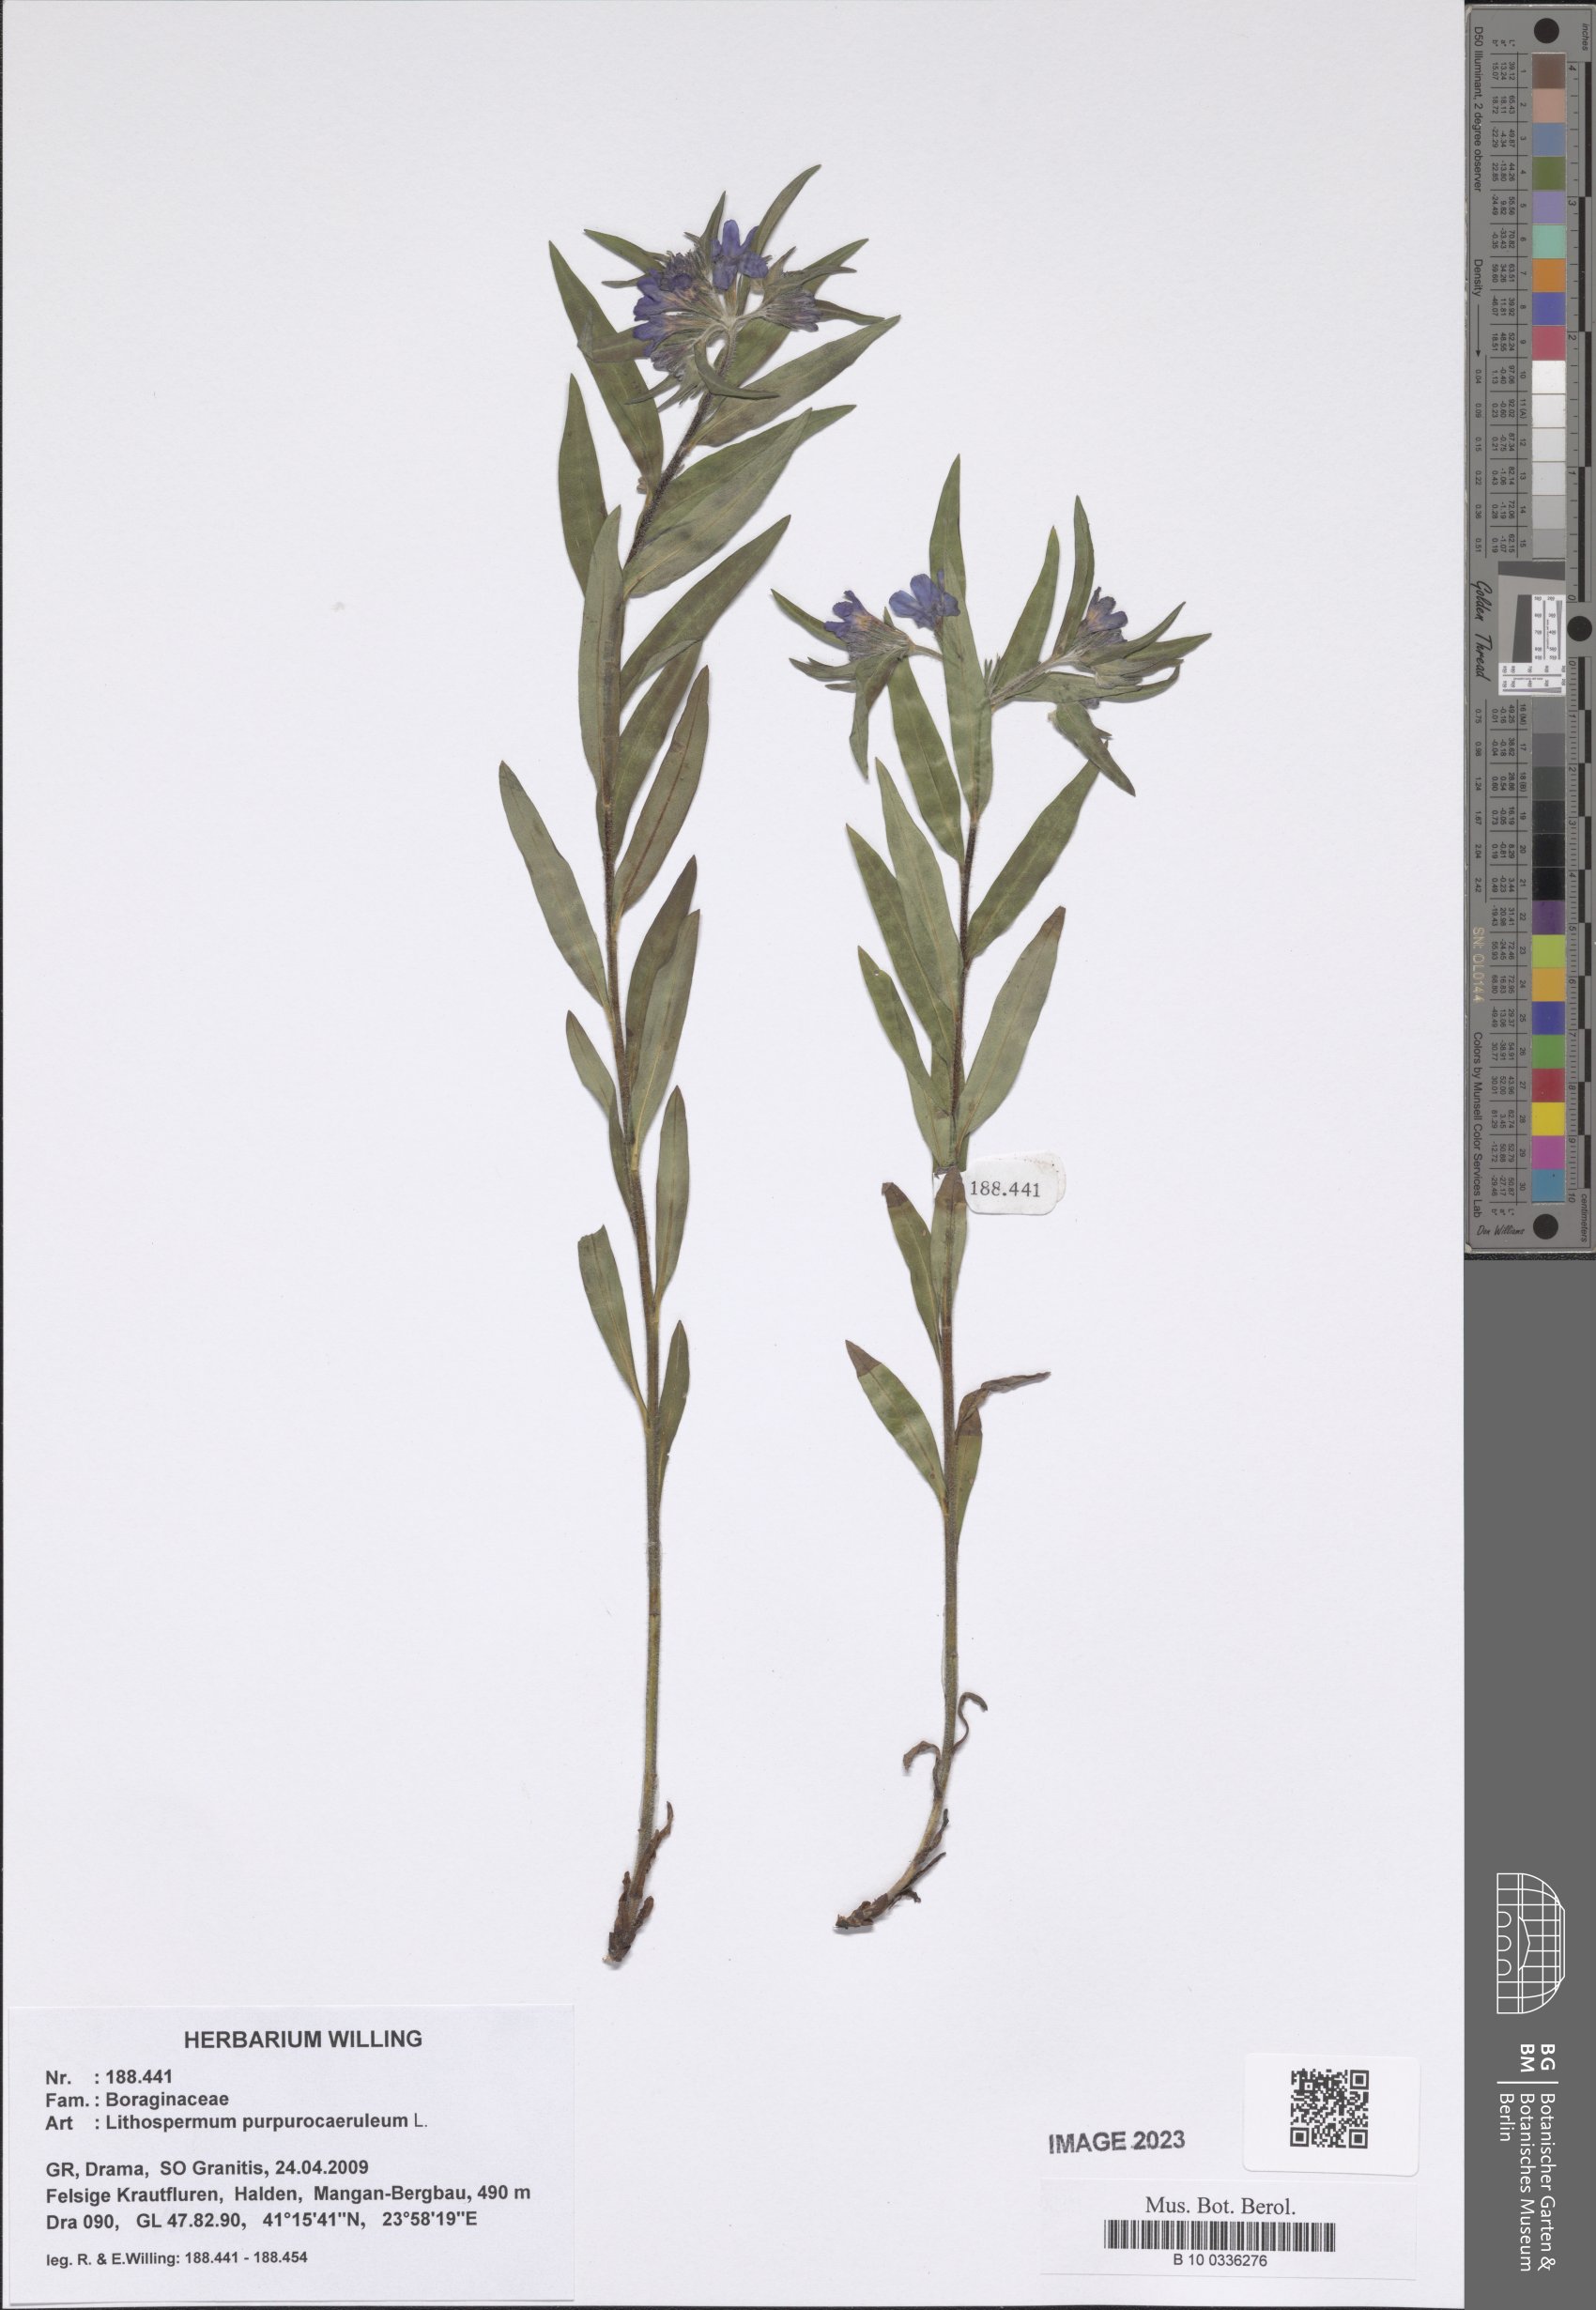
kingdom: Plantae
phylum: Tracheophyta
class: Magnoliopsida
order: Boraginales
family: Boraginaceae
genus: Aegonychon
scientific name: Aegonychon purpurocaeruleum
